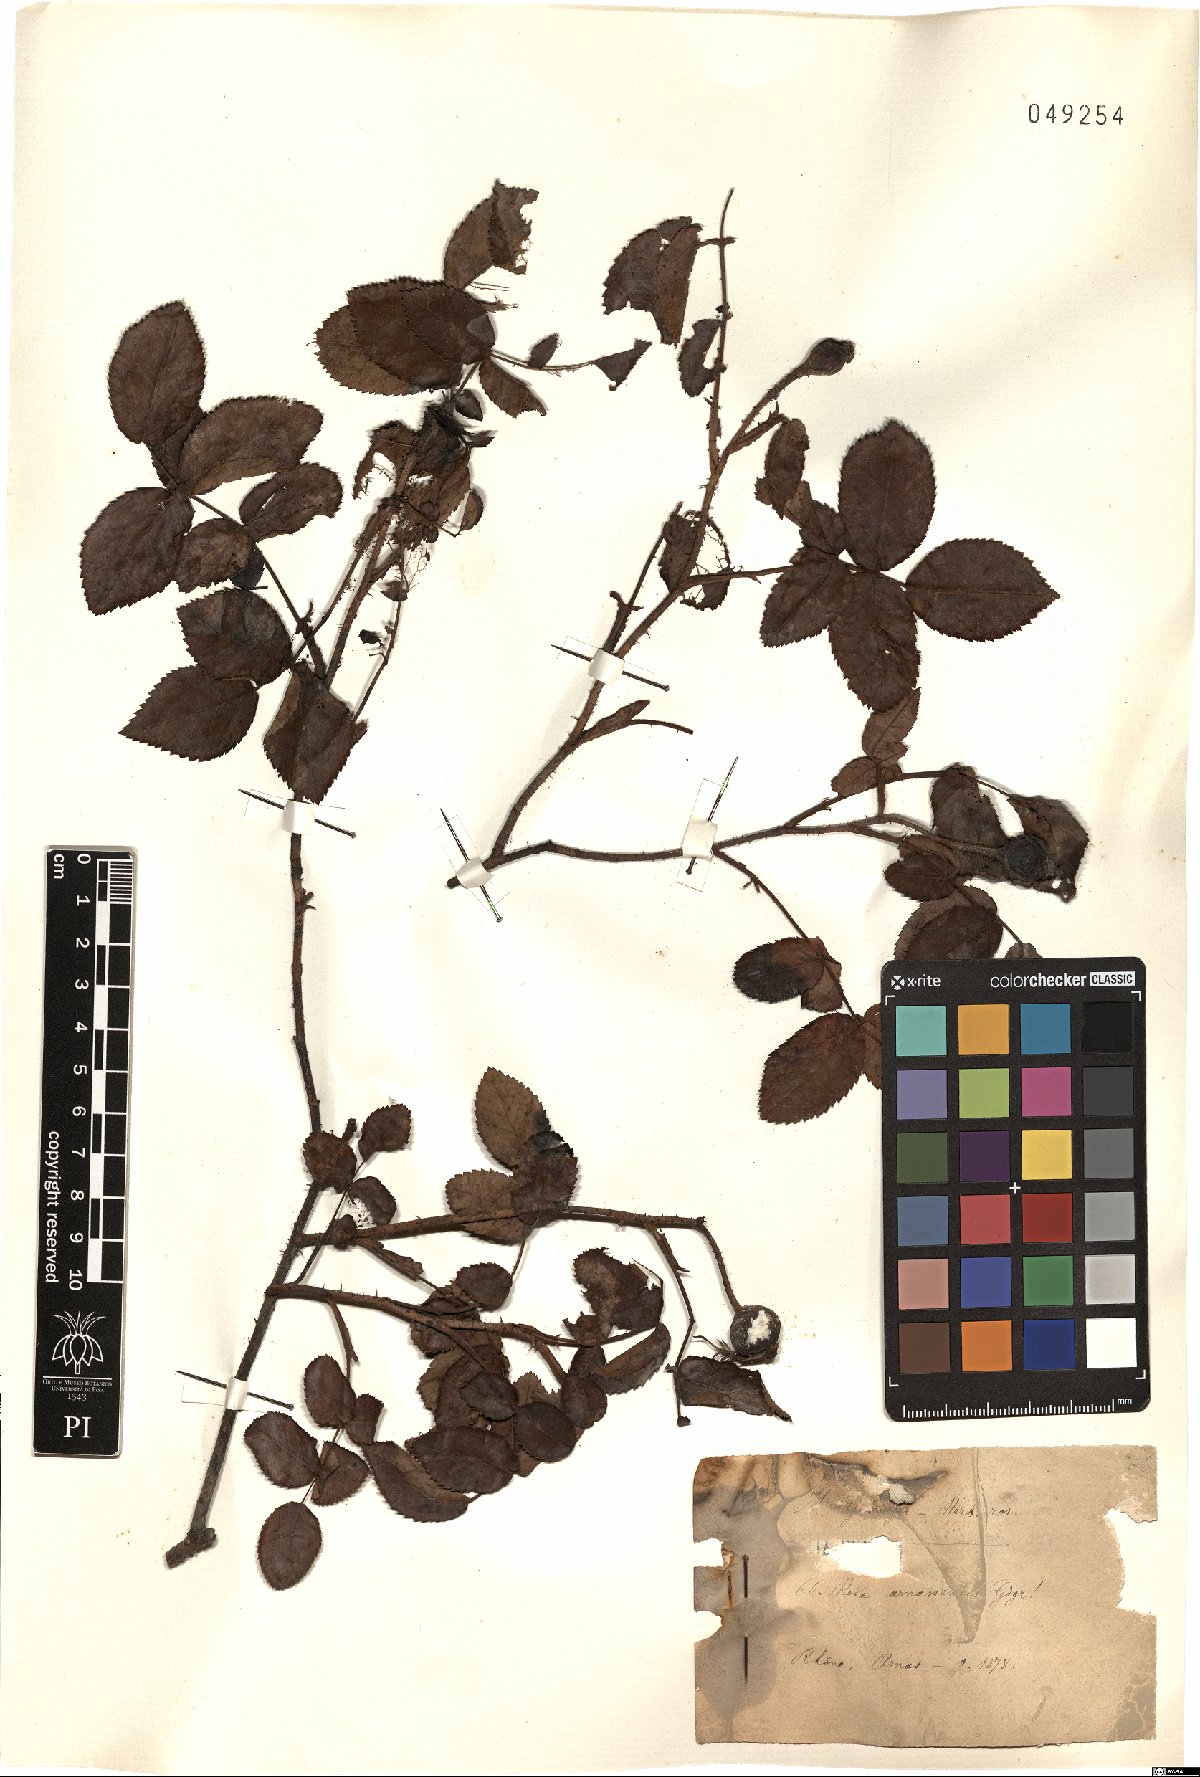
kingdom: Plantae
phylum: Tracheophyta
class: Magnoliopsida
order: Rosales
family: Rosaceae
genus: Rosa
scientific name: Rosa armassensis
